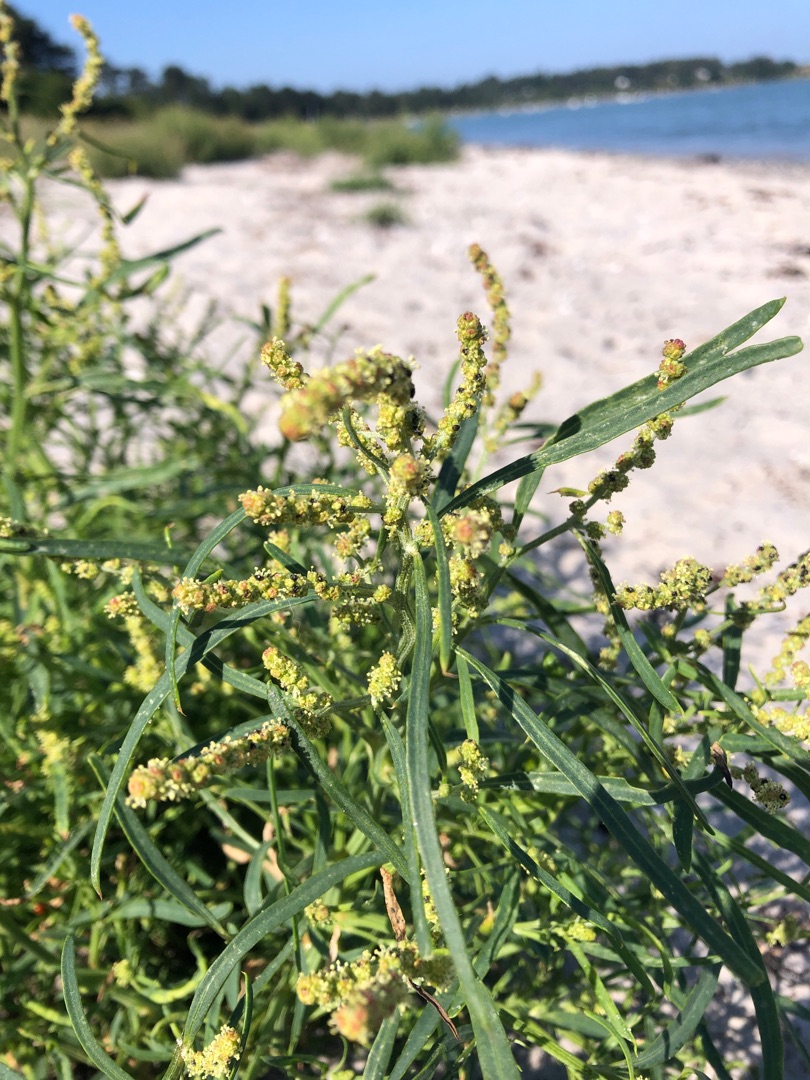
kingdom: Plantae
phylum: Tracheophyta
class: Magnoliopsida
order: Caryophyllales
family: Amaranthaceae
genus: Atriplex
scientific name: Atriplex littoralis
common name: Strand-mælde
